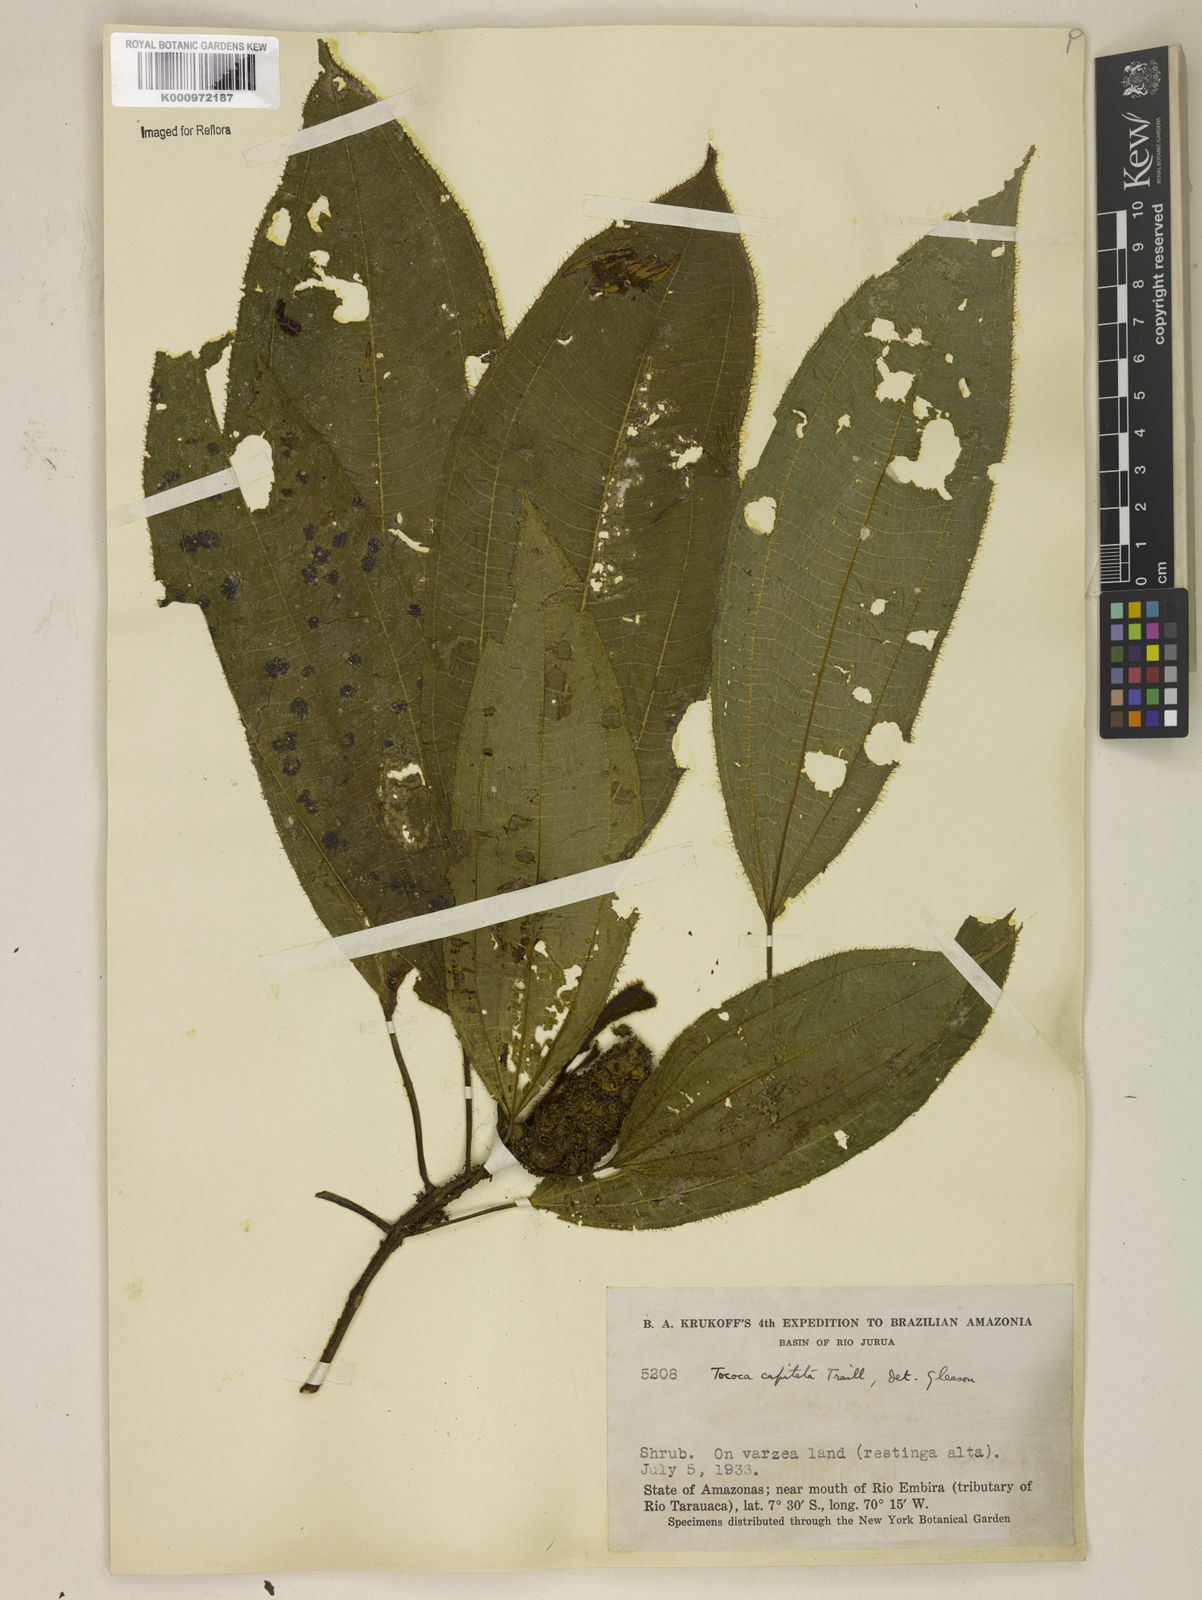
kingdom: Plantae
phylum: Tracheophyta
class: Magnoliopsida
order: Myrtales
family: Melastomataceae
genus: Miconia
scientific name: Miconia
